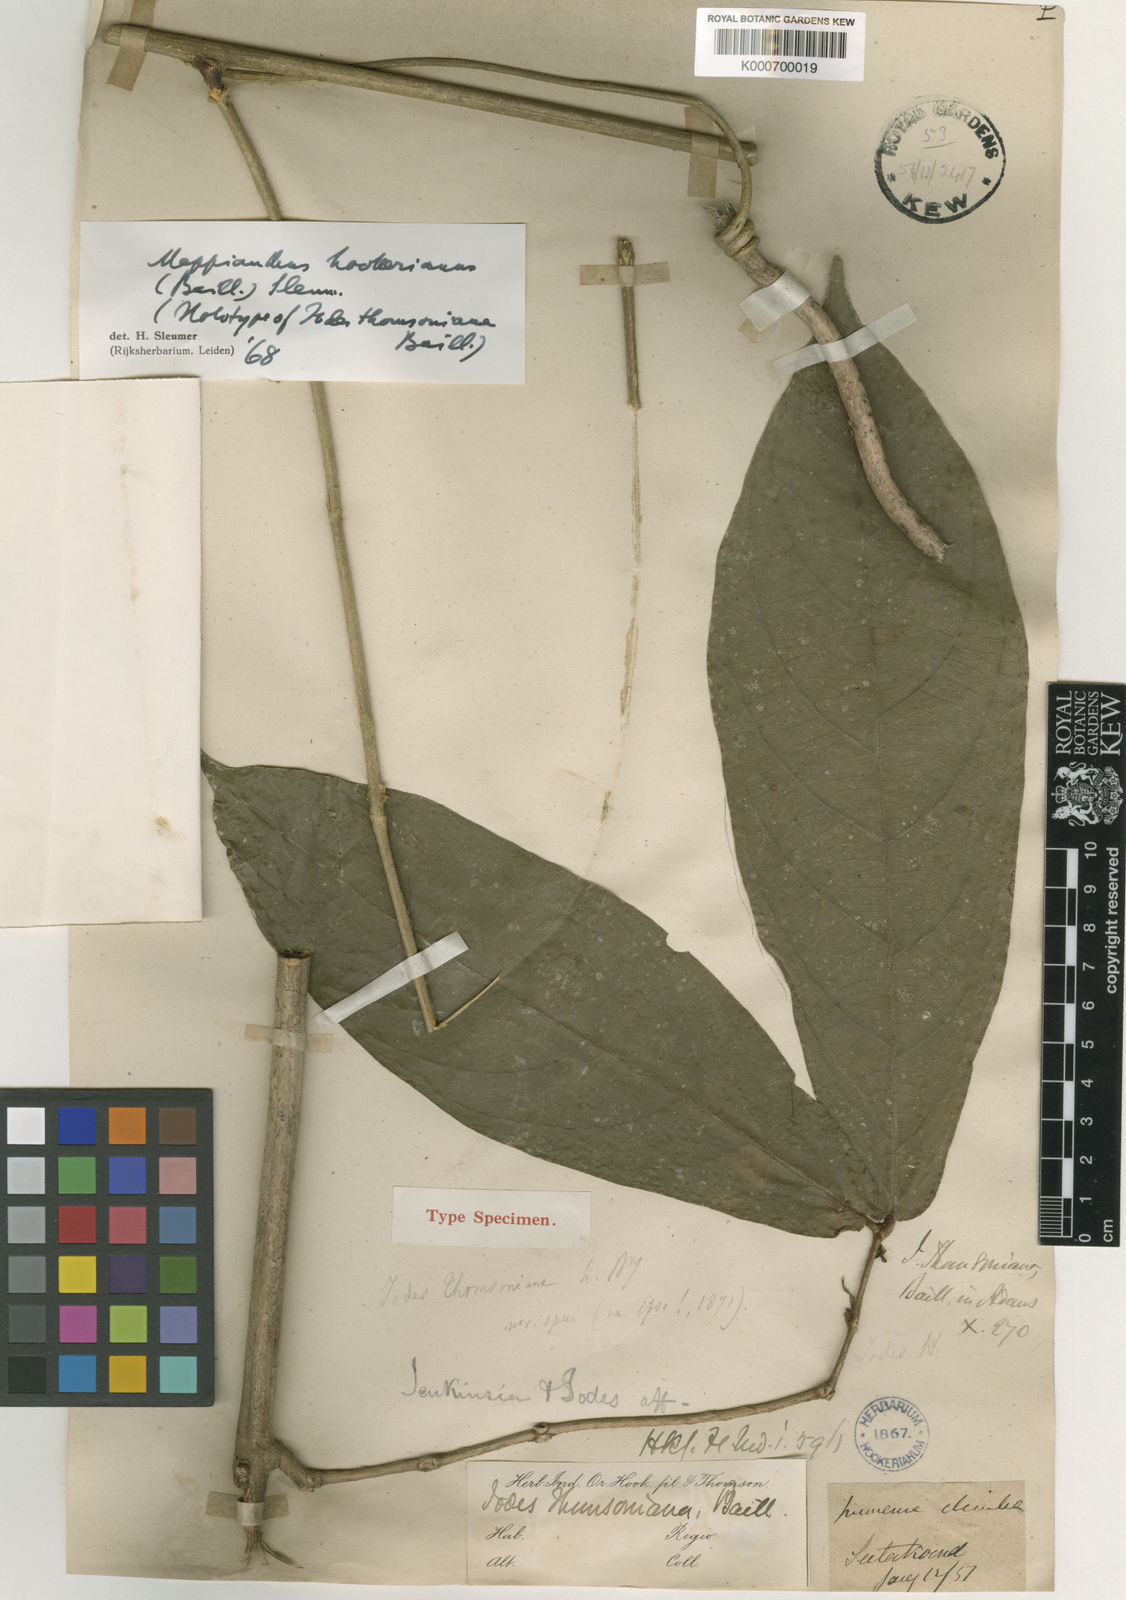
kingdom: Plantae
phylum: Tracheophyta
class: Magnoliopsida
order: Icacinales
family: Icacinaceae
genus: Mappianthus
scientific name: Mappianthus hookerianus
